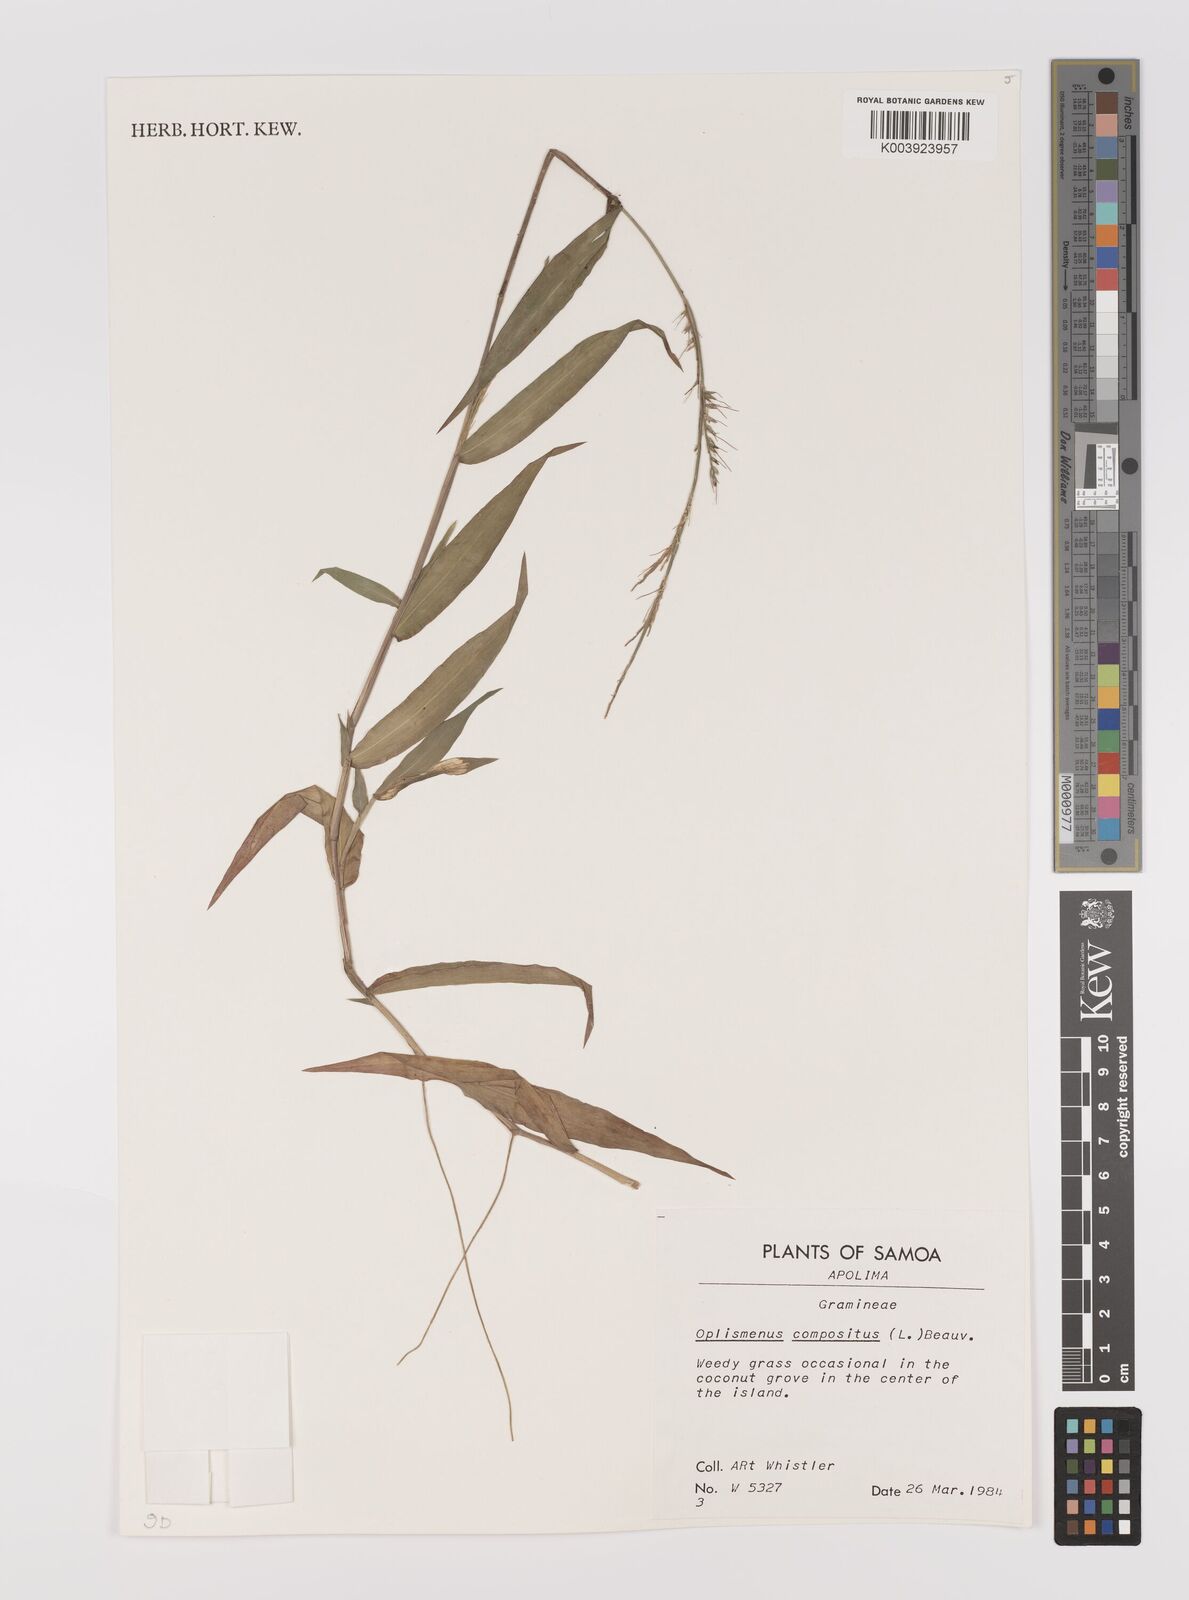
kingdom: Plantae
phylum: Tracheophyta
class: Liliopsida
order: Poales
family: Poaceae
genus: Oplismenus
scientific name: Oplismenus compositus
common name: Running mountain grass
